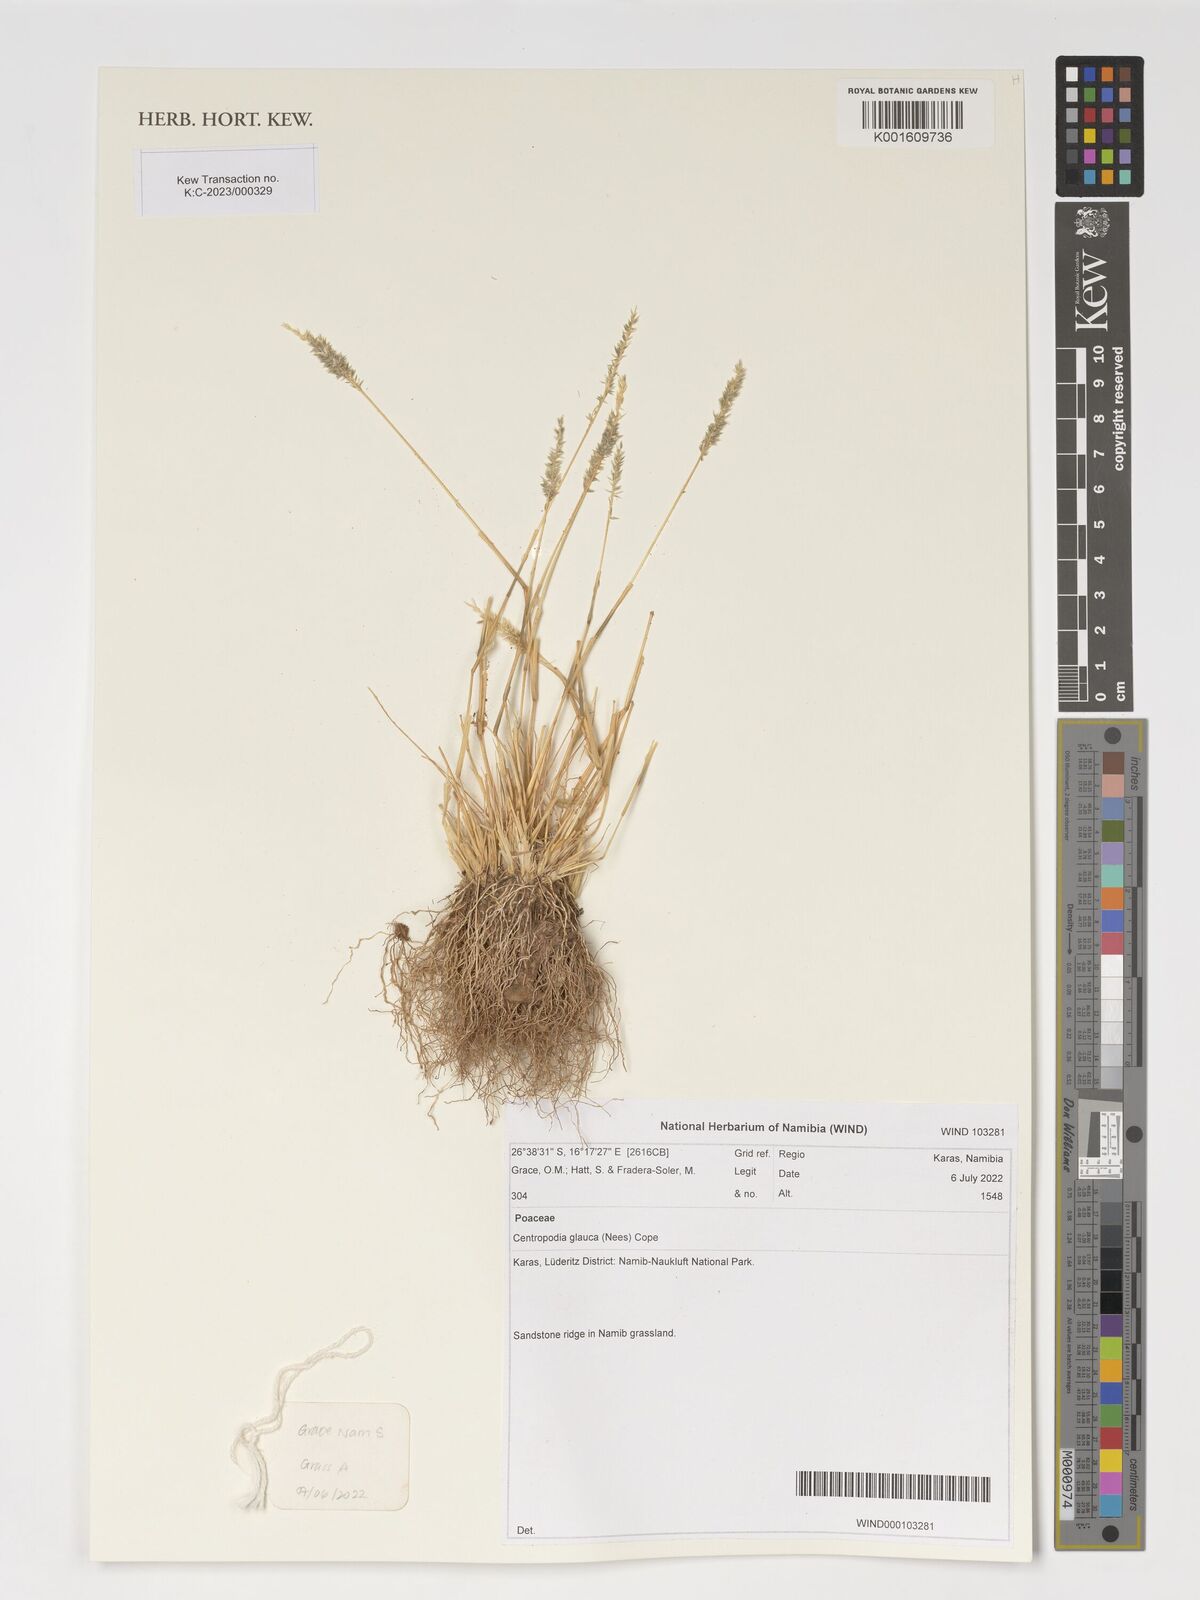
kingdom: Plantae
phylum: Tracheophyta
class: Liliopsida
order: Poales
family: Poaceae
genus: Centropodia
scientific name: Centropodia glauca
